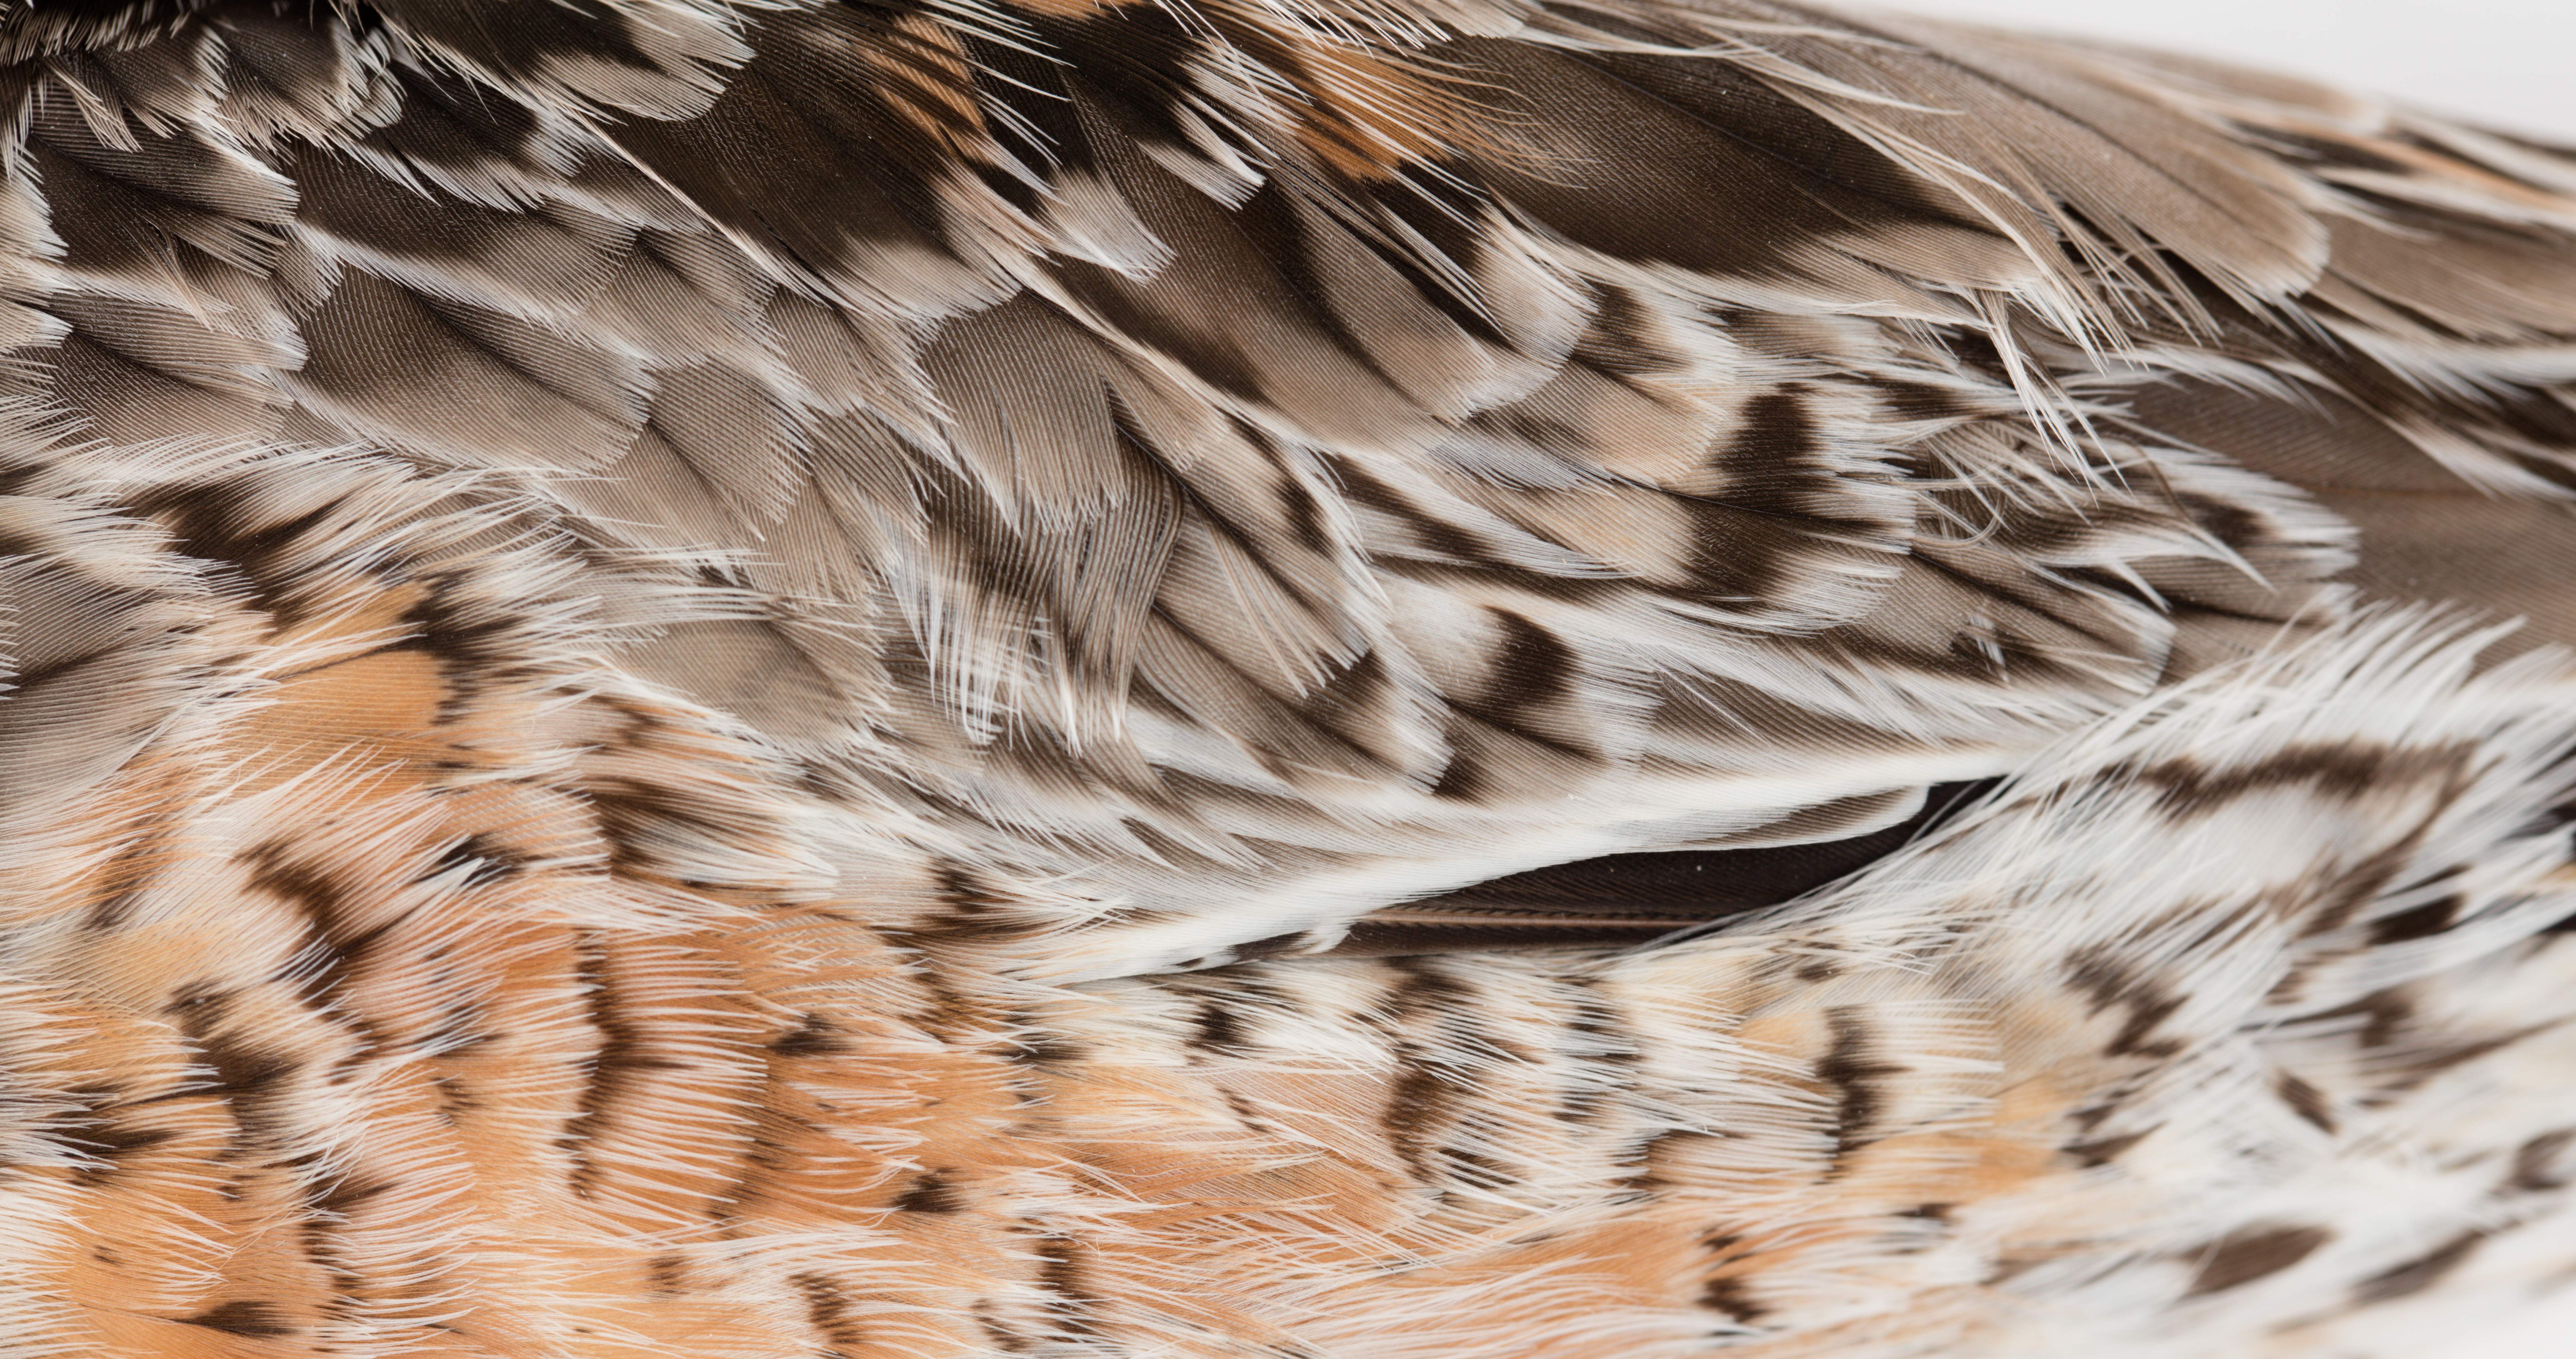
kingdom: Animalia
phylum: Chordata
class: Aves
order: Charadriiformes
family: Scolopacidae
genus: Calidris
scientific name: Calidris canutus
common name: Red knot
